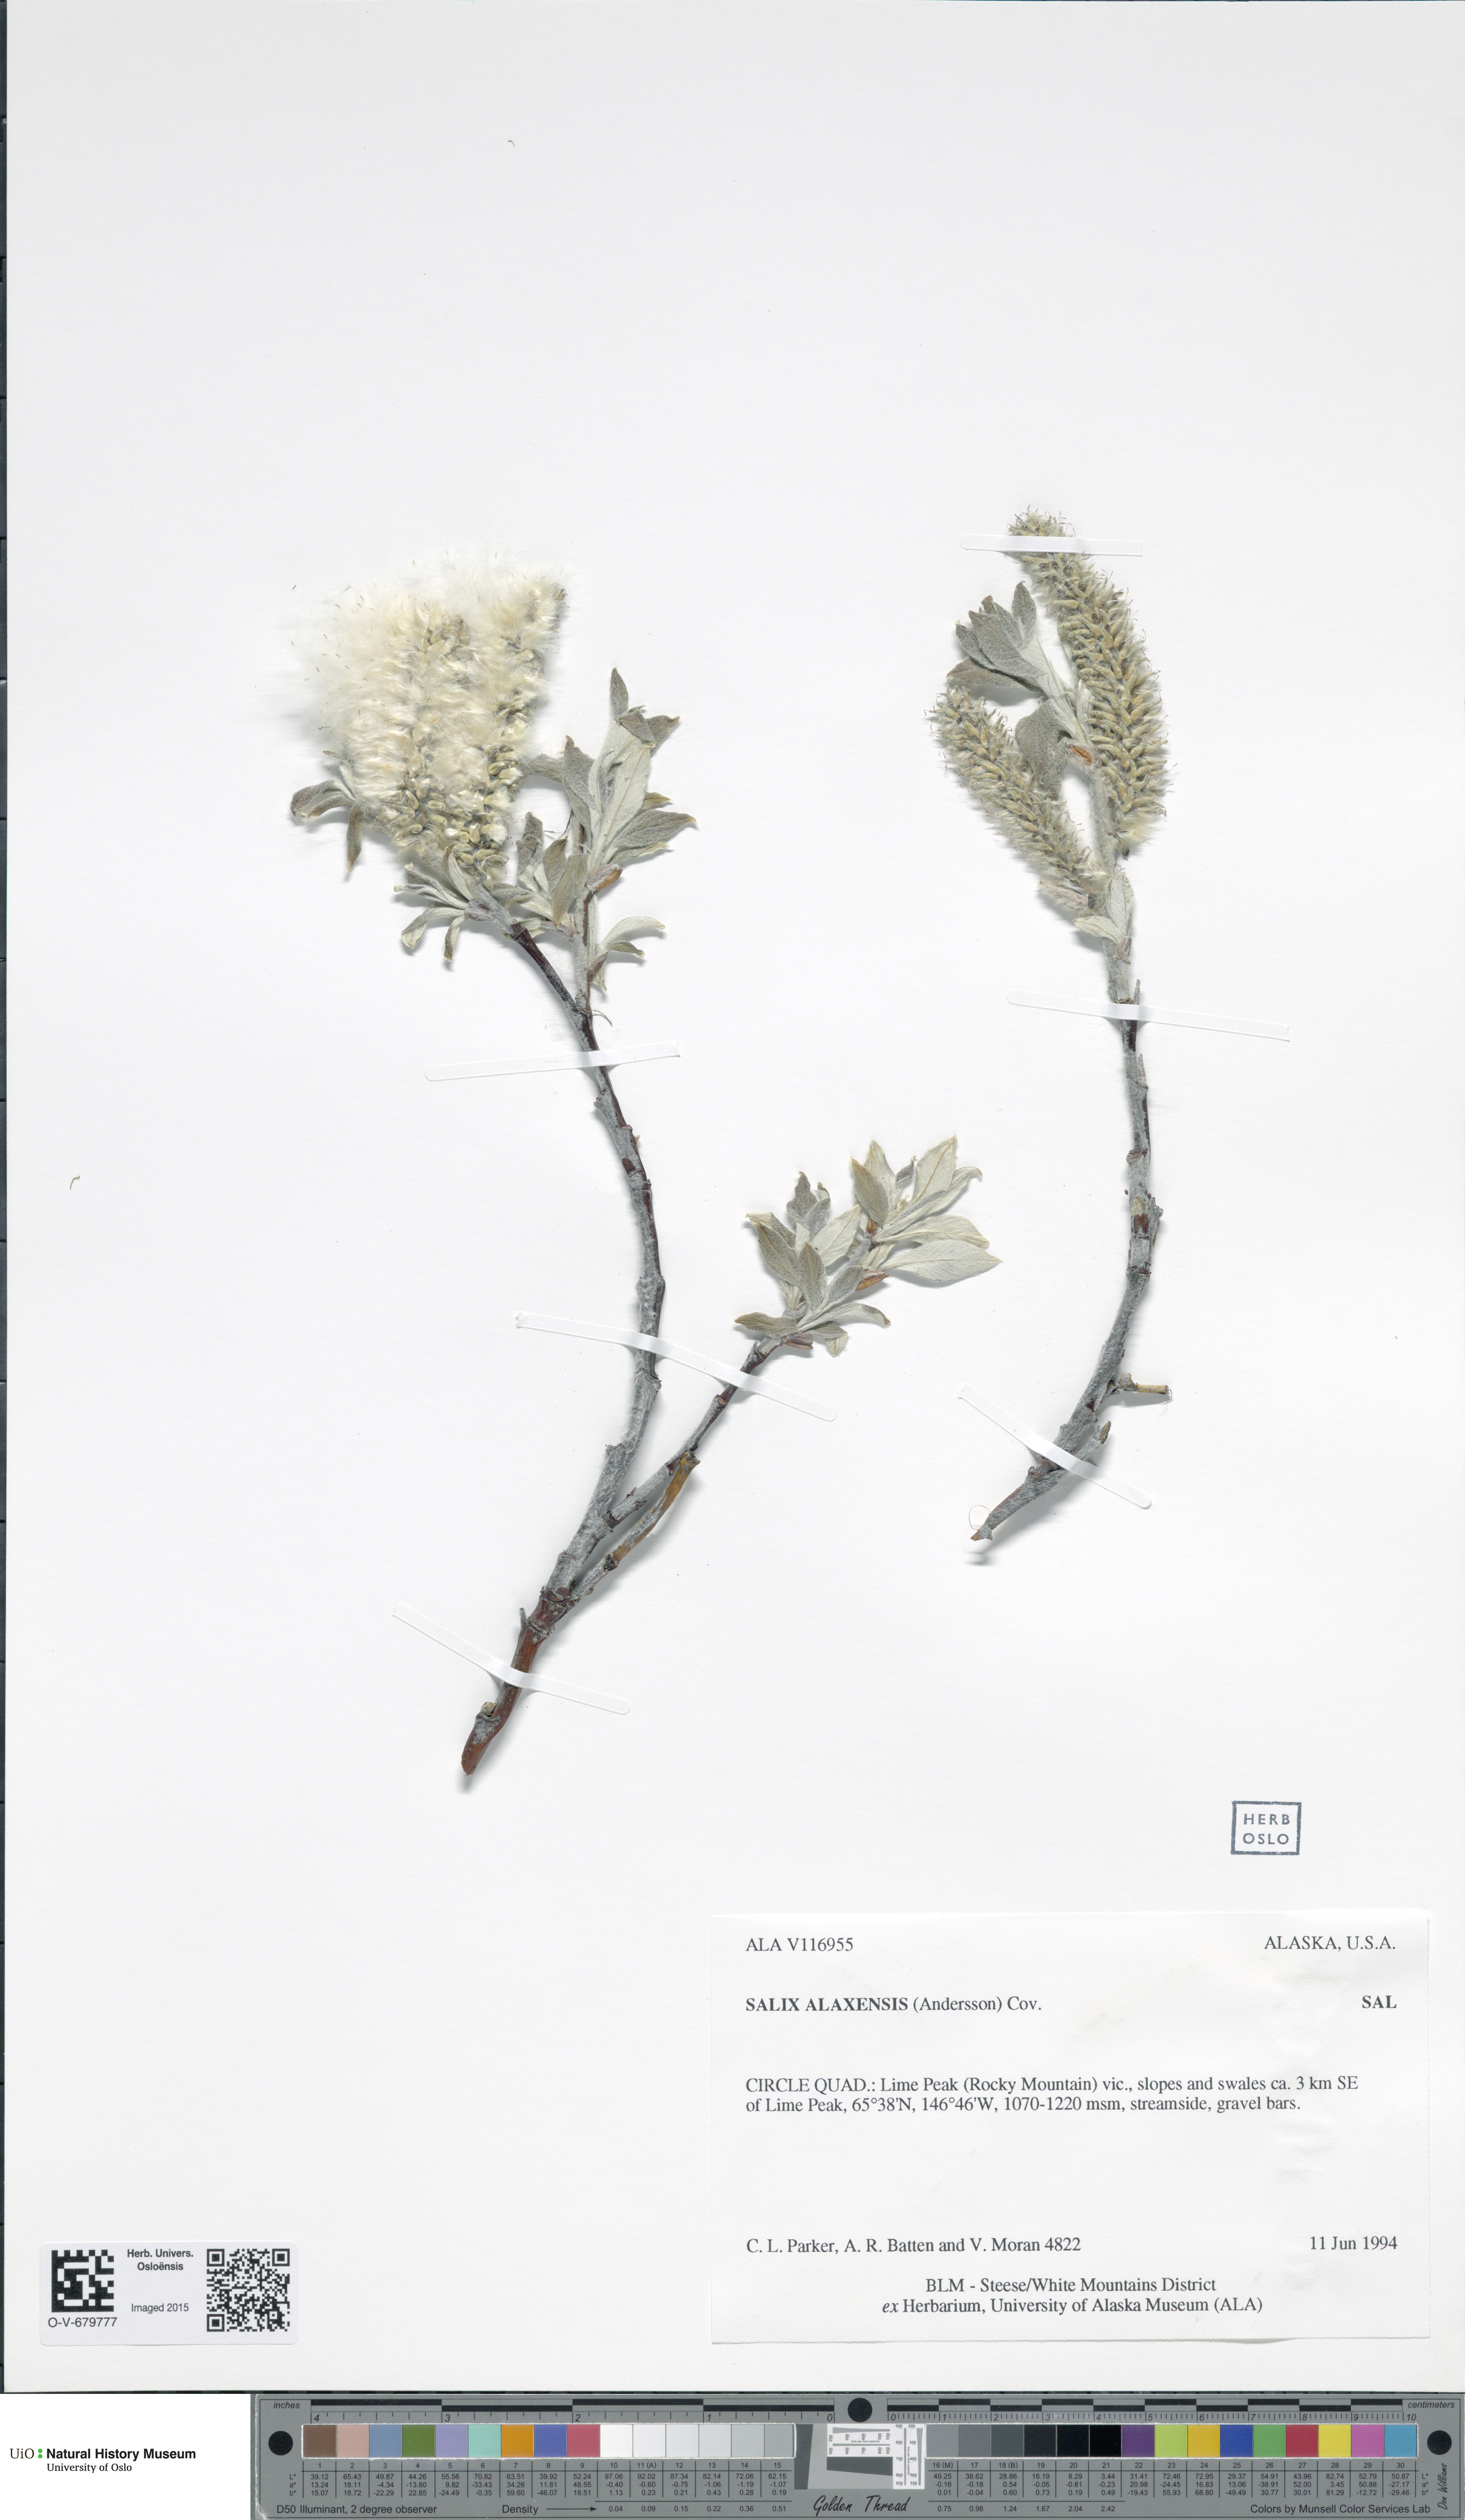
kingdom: Plantae
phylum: Tracheophyta
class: Magnoliopsida
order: Malpighiales
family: Salicaceae
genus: Salix
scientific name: Salix alaxensis
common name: Feltleaf willow
